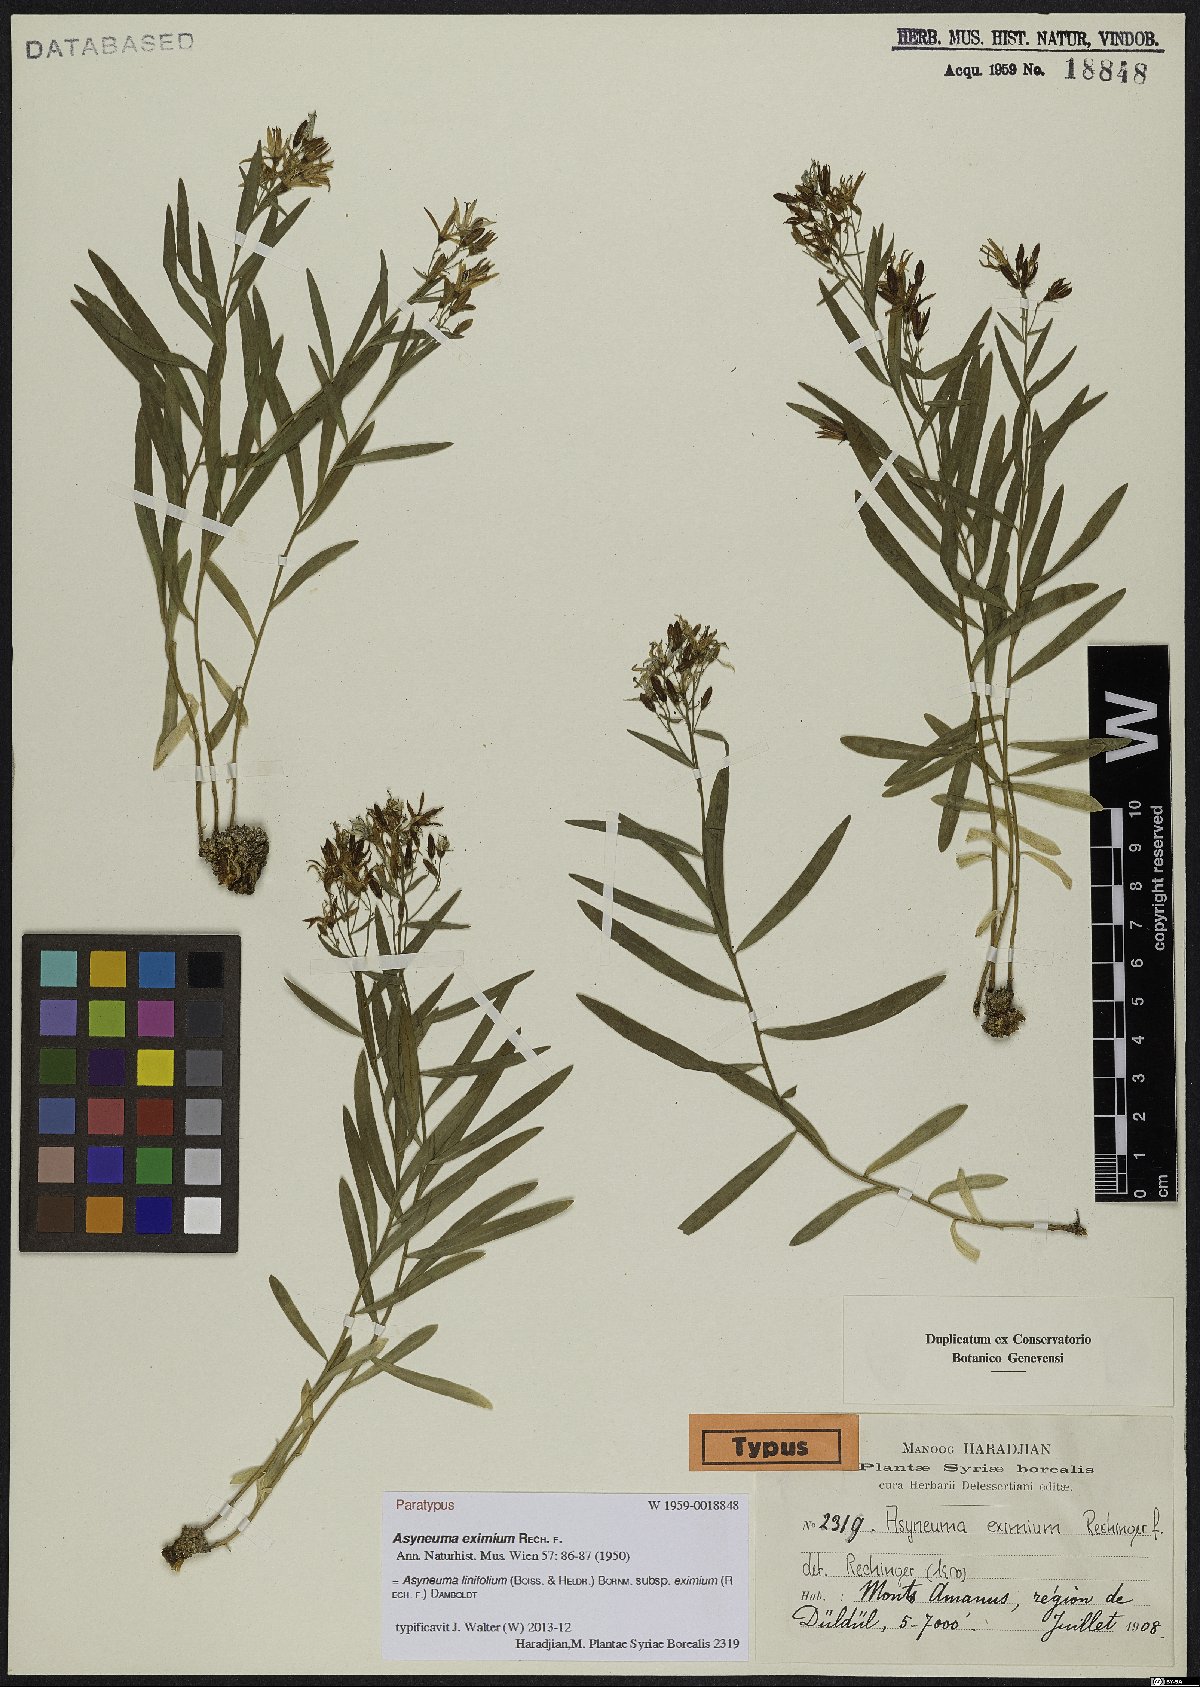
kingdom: Plantae
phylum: Tracheophyta
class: Magnoliopsida
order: Asterales
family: Campanulaceae
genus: Asyneuma
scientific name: Asyneuma linifolium
